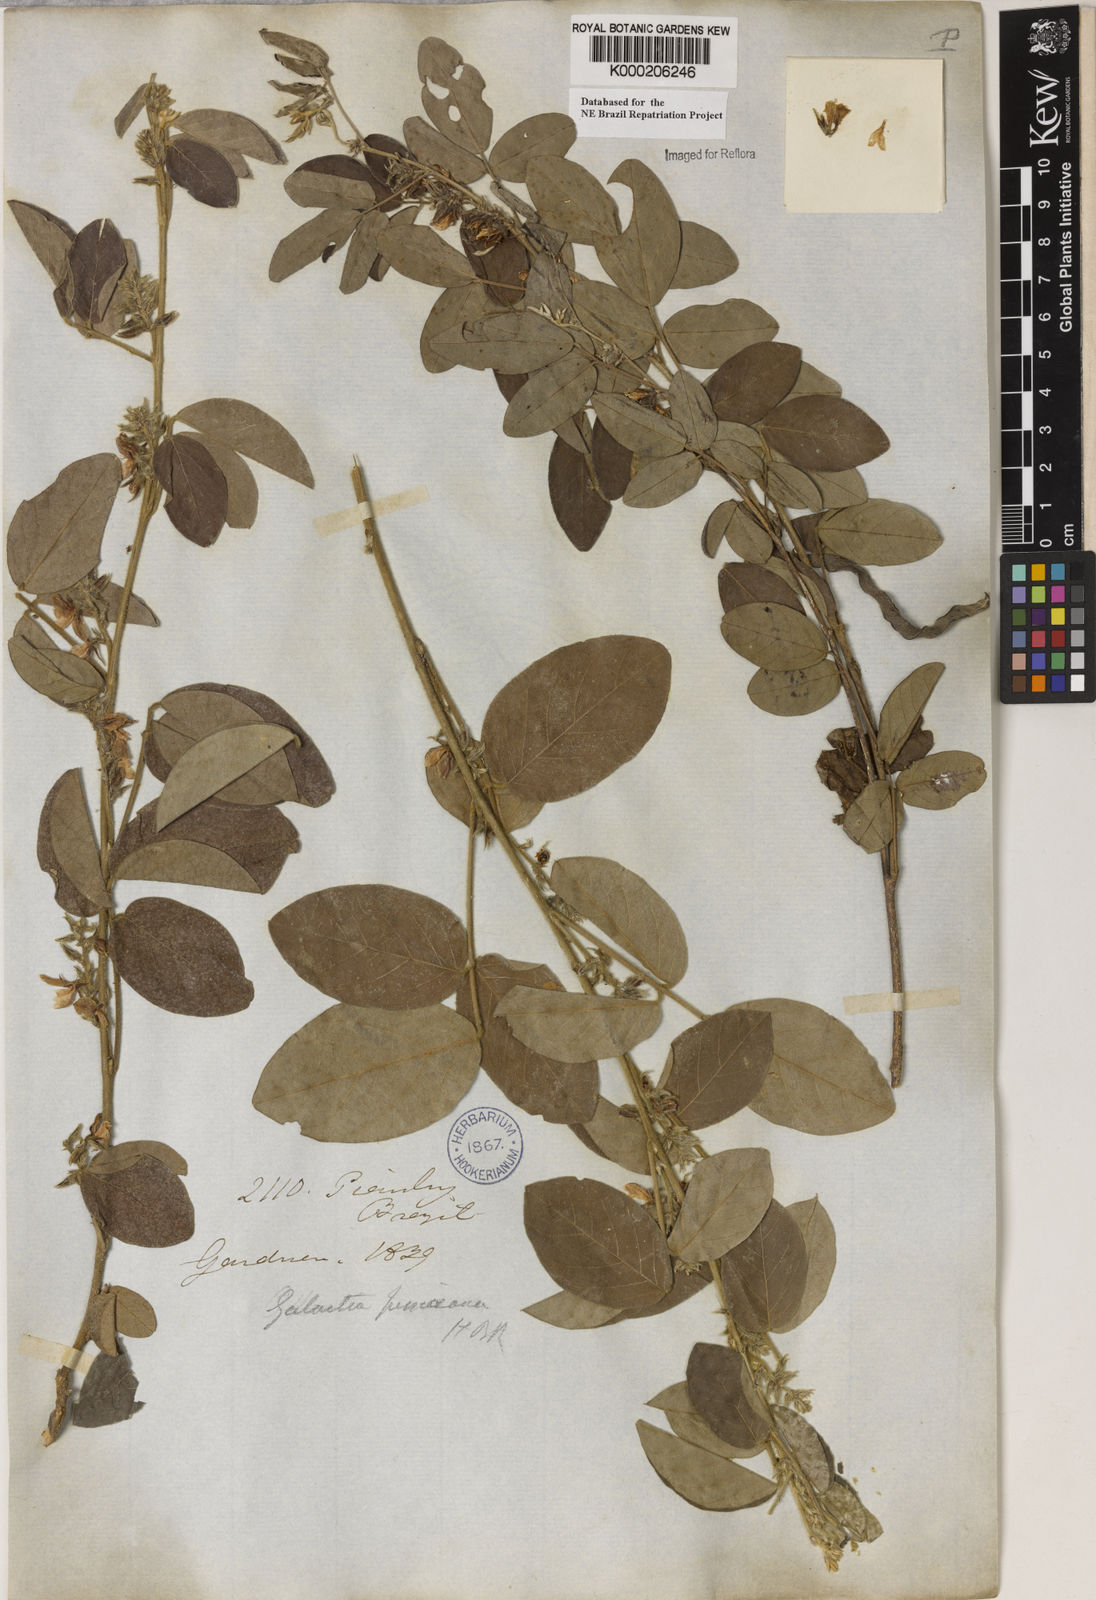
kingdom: Plantae
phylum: Tracheophyta
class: Magnoliopsida
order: Fabales
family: Fabaceae
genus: Galactia
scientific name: Galactia jussiaeana
